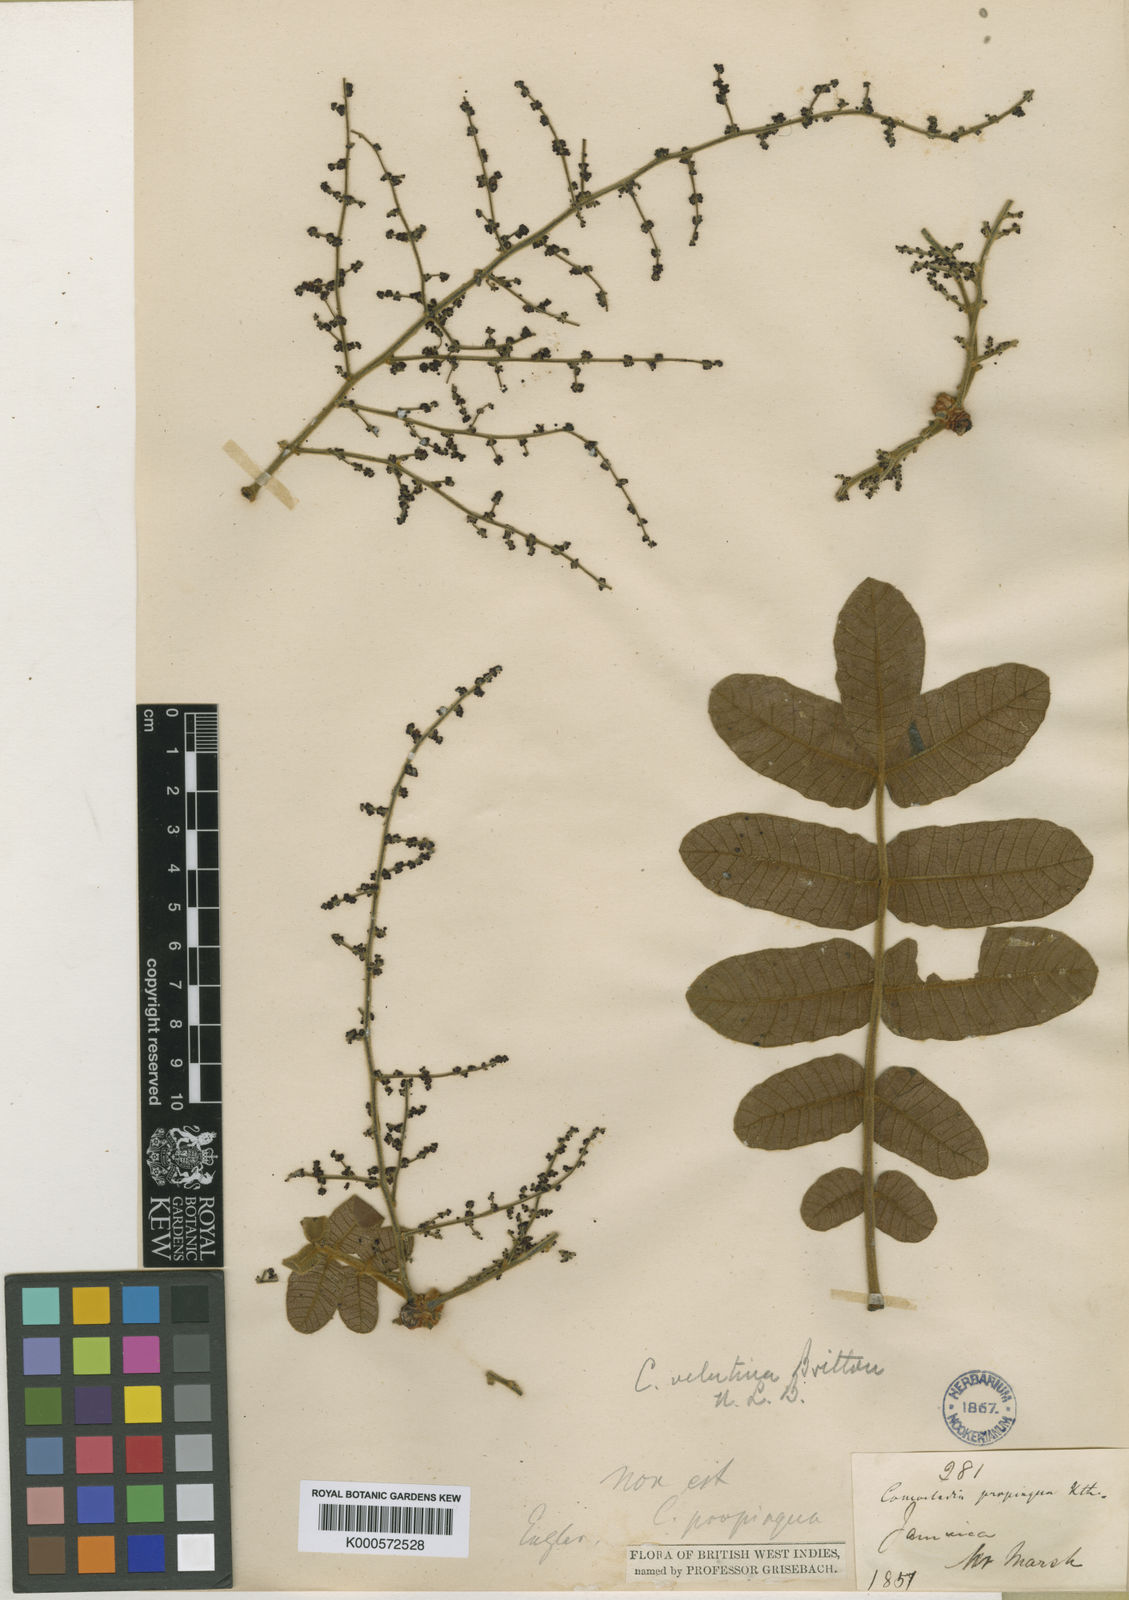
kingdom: Plantae
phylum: Tracheophyta
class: Magnoliopsida
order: Sapindales
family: Anacardiaceae
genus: Comocladia
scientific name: Comocladia velutina
